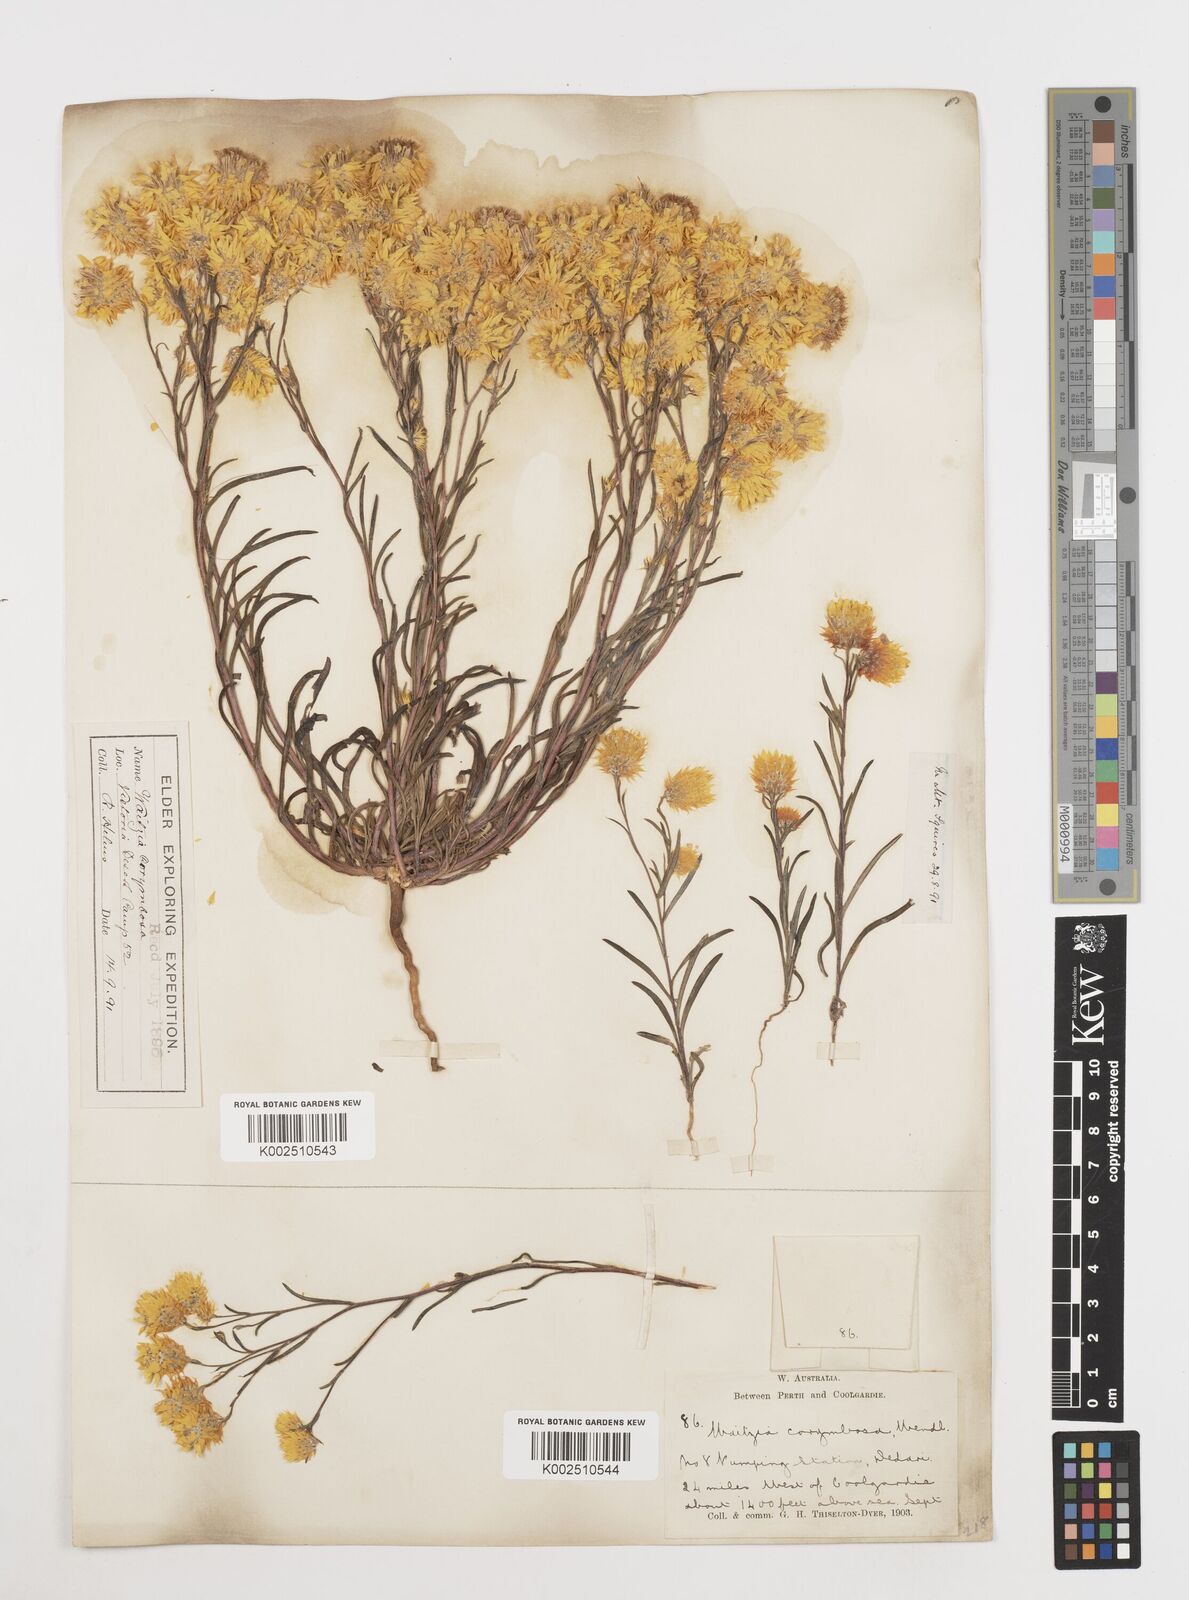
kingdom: Plantae
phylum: Tracheophyta
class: Magnoliopsida
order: Asterales
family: Asteraceae
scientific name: Asteraceae
